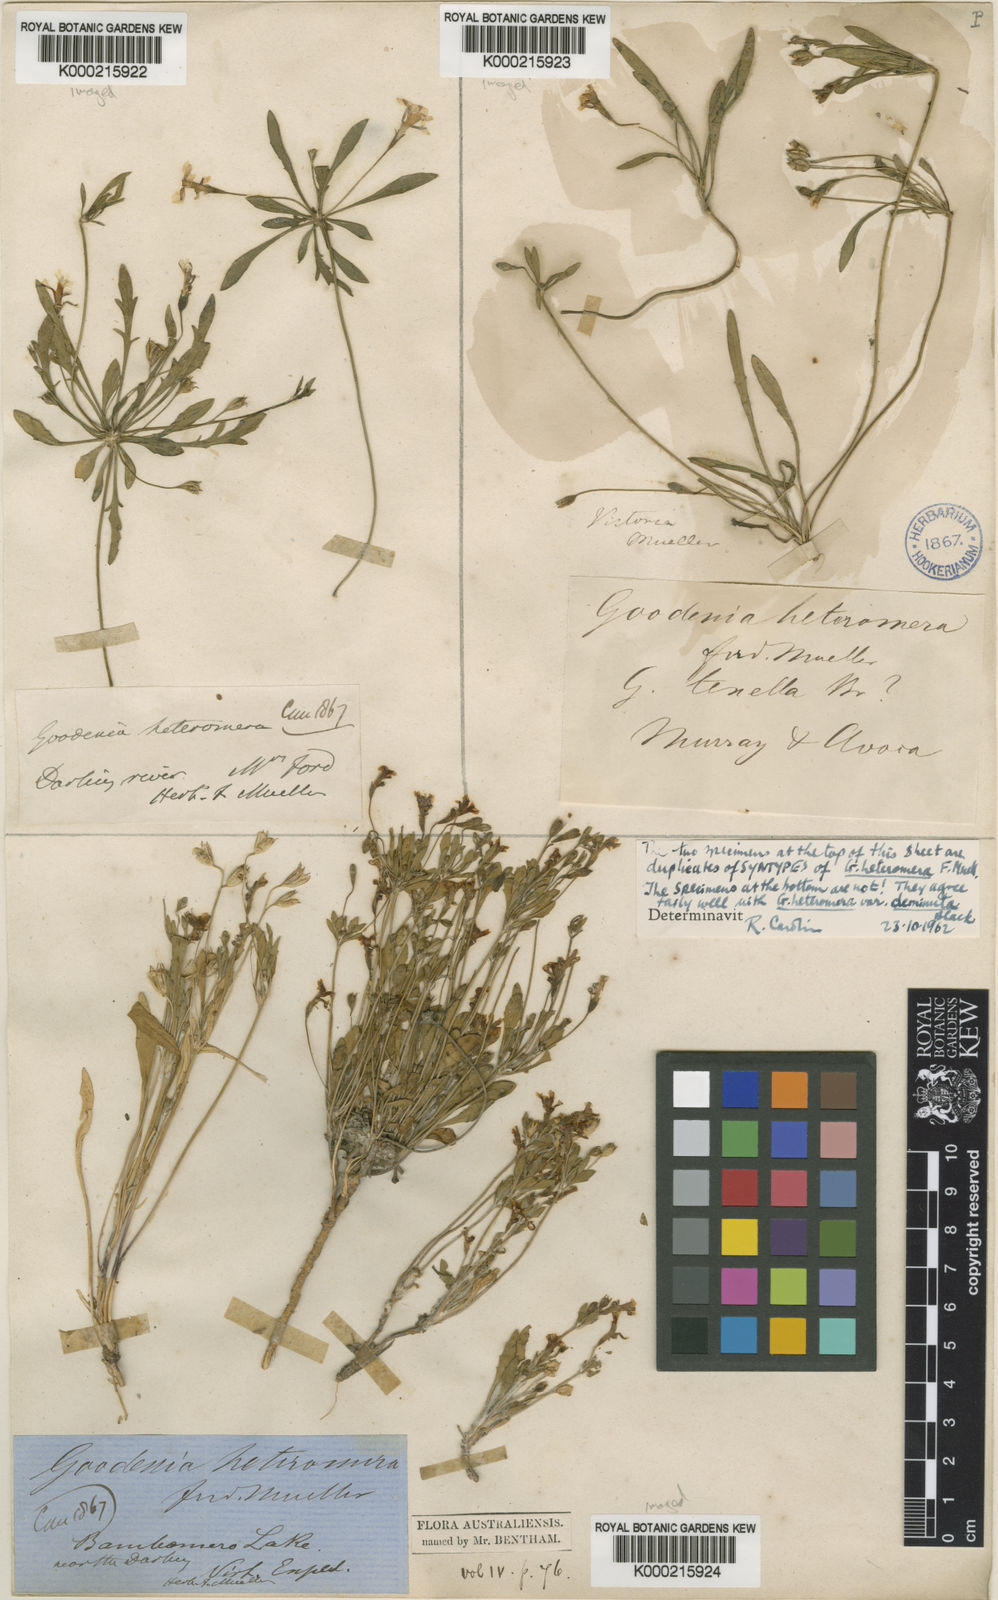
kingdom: Plantae
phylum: Tracheophyta
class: Magnoliopsida
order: Asterales
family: Goodeniaceae
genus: Goodenia
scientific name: Goodenia heteromera
